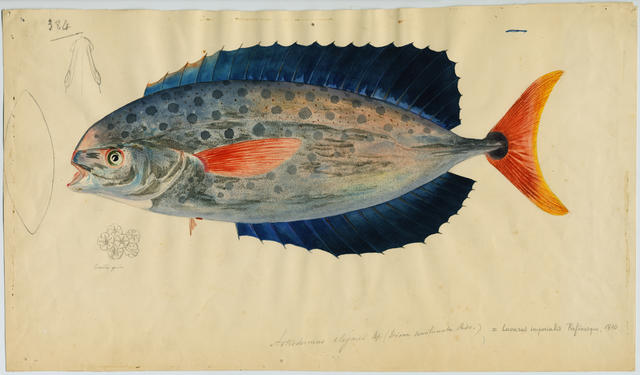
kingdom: Animalia
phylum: Chordata
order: Perciformes
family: Luvaridae
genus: Luvarus
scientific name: Luvarus imperialis
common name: Louvar
